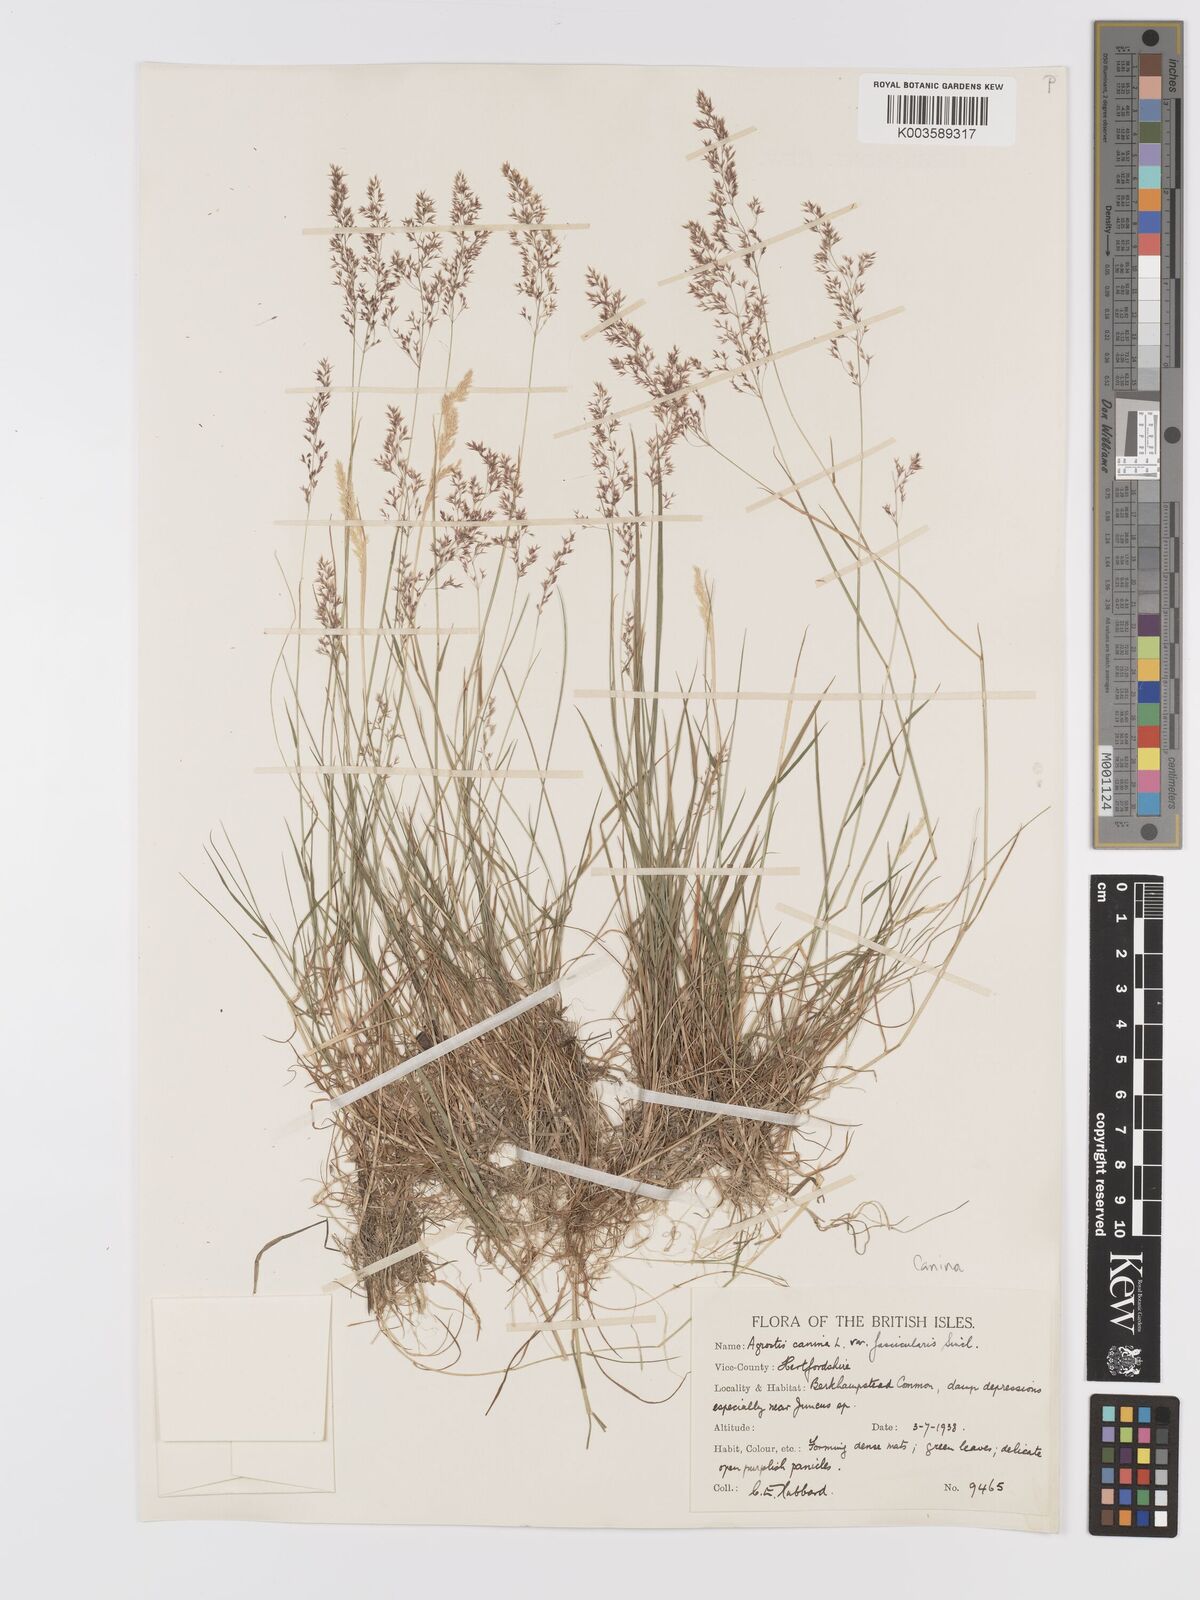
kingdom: Plantae
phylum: Tracheophyta
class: Liliopsida
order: Poales
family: Poaceae
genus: Agrostis
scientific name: Agrostis canina
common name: Velvet bent
